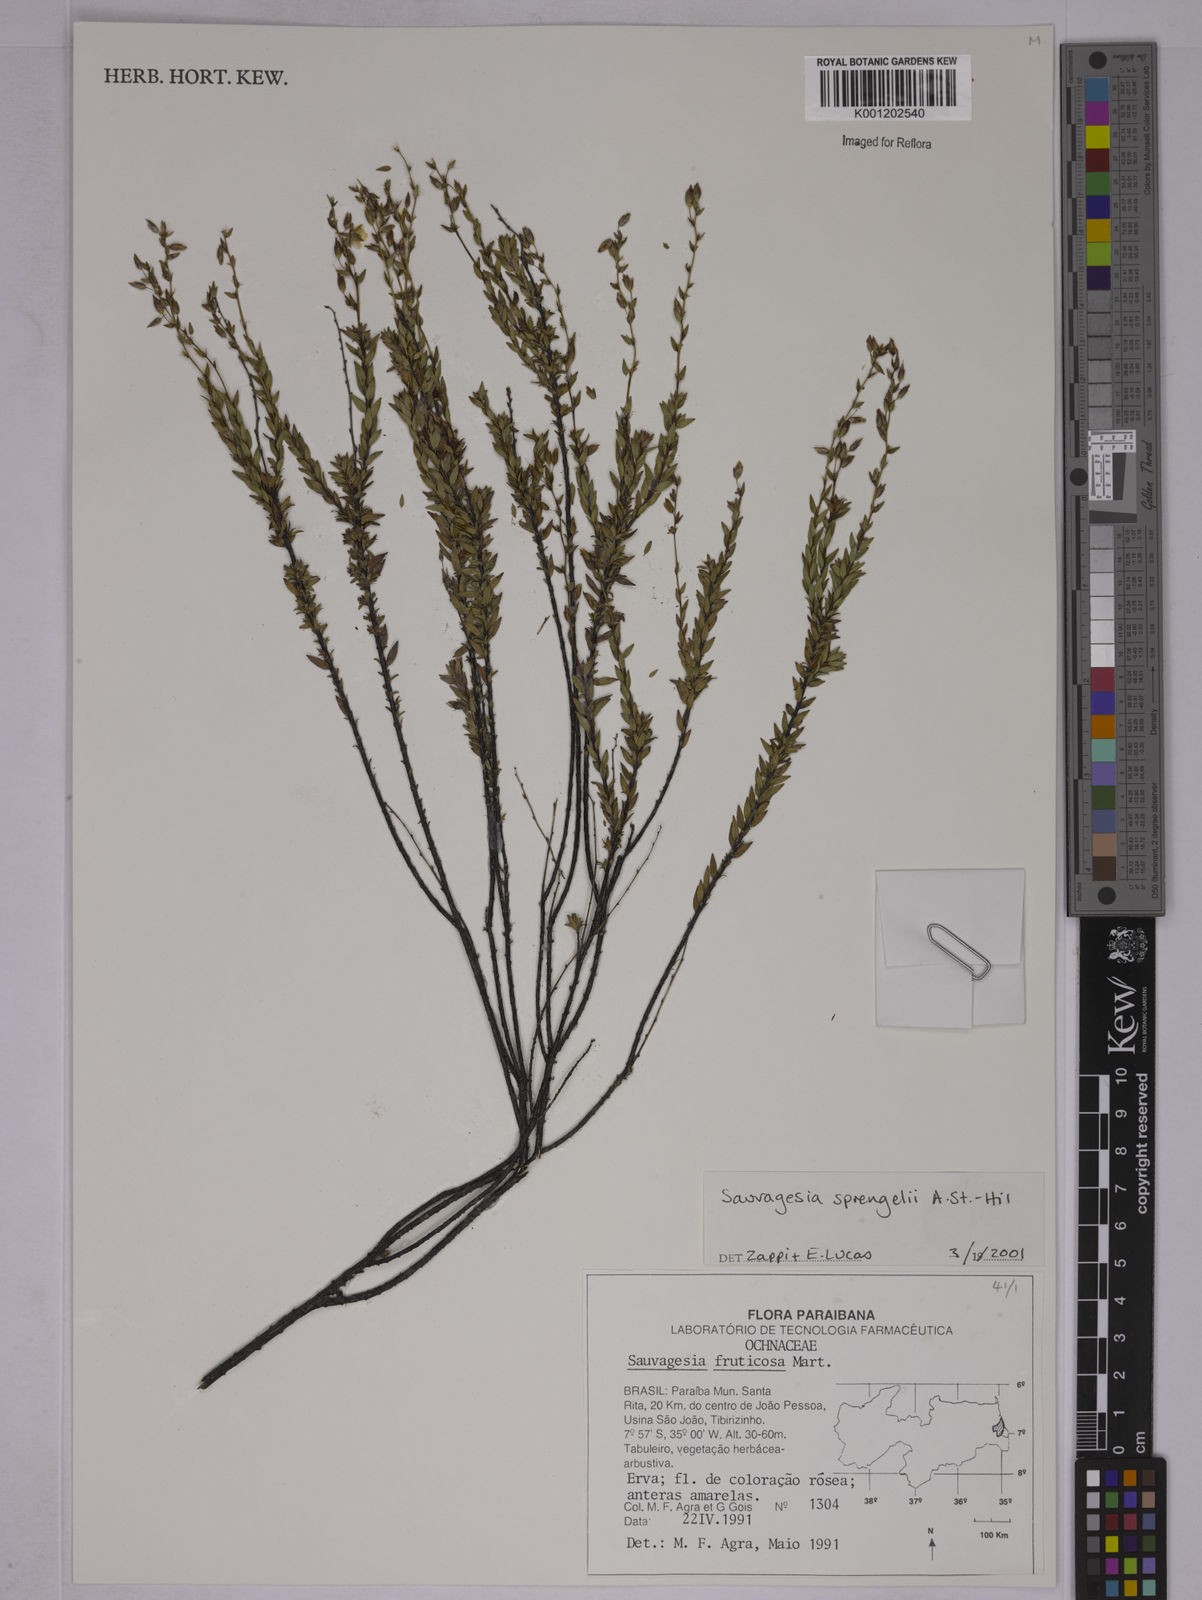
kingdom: Plantae
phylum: Tracheophyta
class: Magnoliopsida
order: Malpighiales
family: Ochnaceae
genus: Sauvagesia
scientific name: Sauvagesia sprengelii
